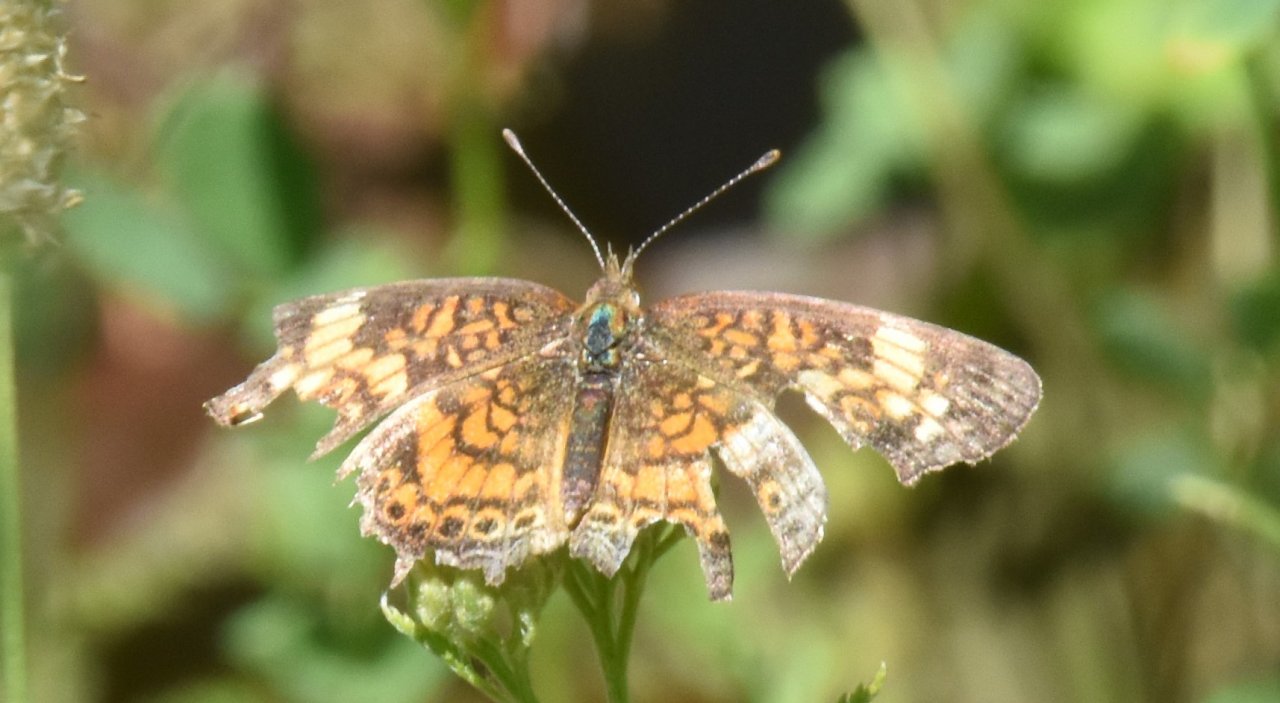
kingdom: Animalia
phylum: Arthropoda
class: Insecta
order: Lepidoptera
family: Nymphalidae
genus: Phyciodes
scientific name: Phyciodes tharos
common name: Pearl Crescent
